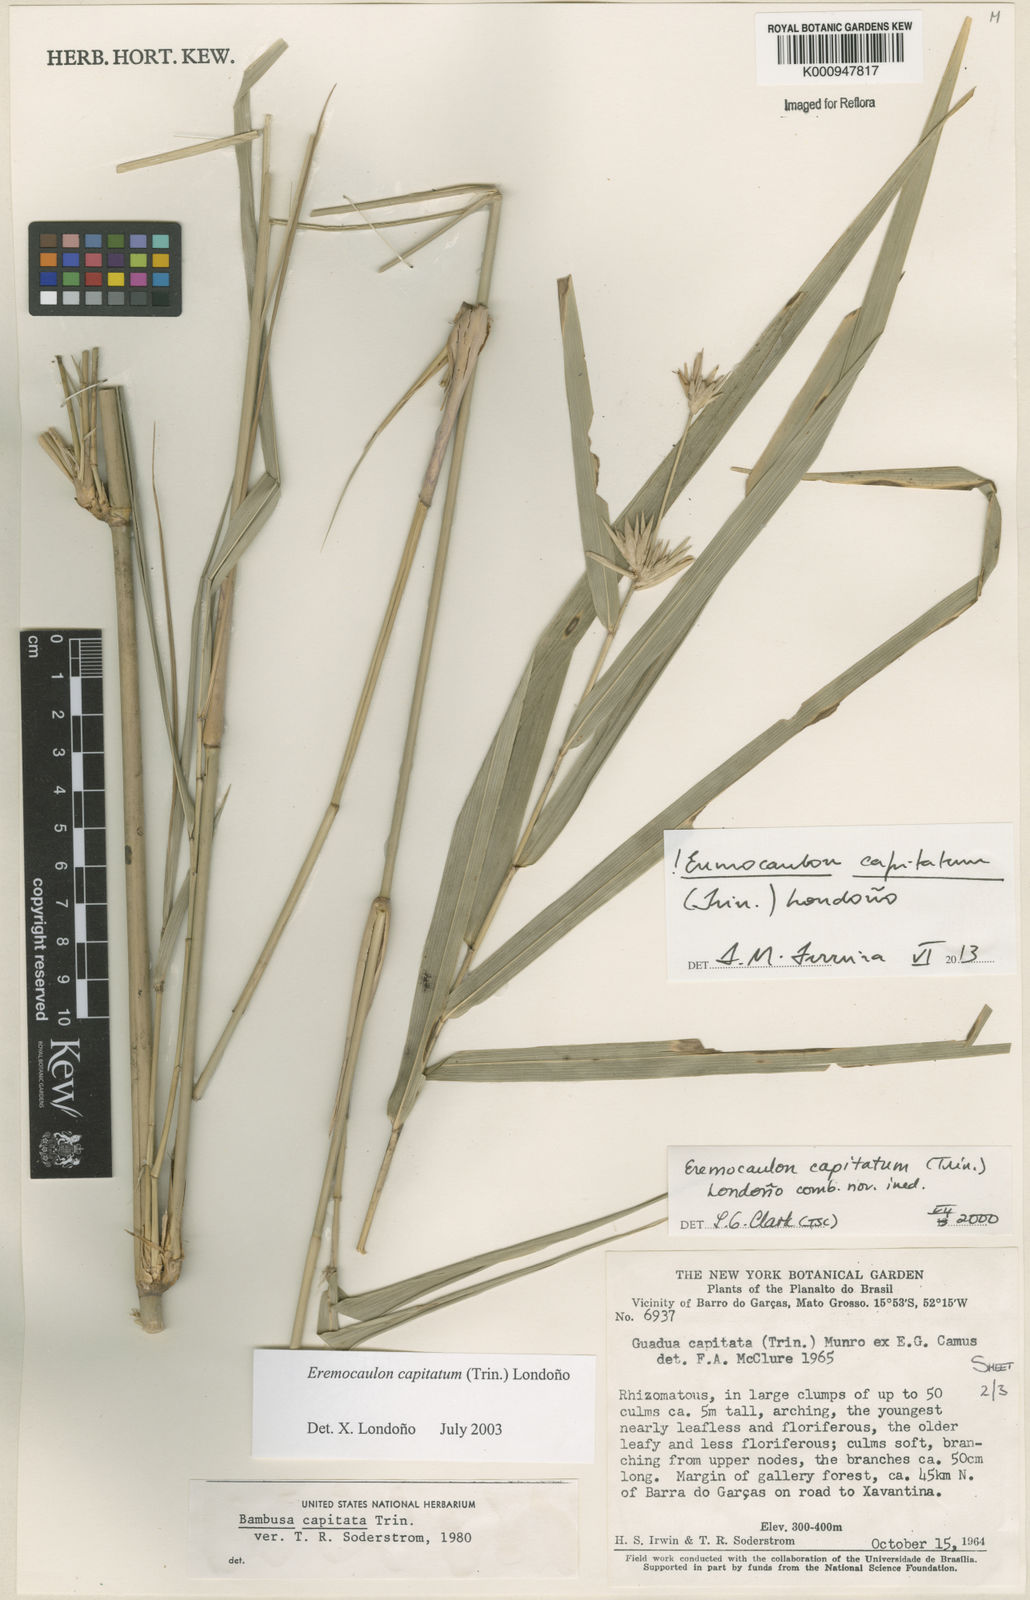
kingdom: Plantae
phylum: Tracheophyta
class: Liliopsida
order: Poales
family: Poaceae
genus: Eremocaulon
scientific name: Eremocaulon
